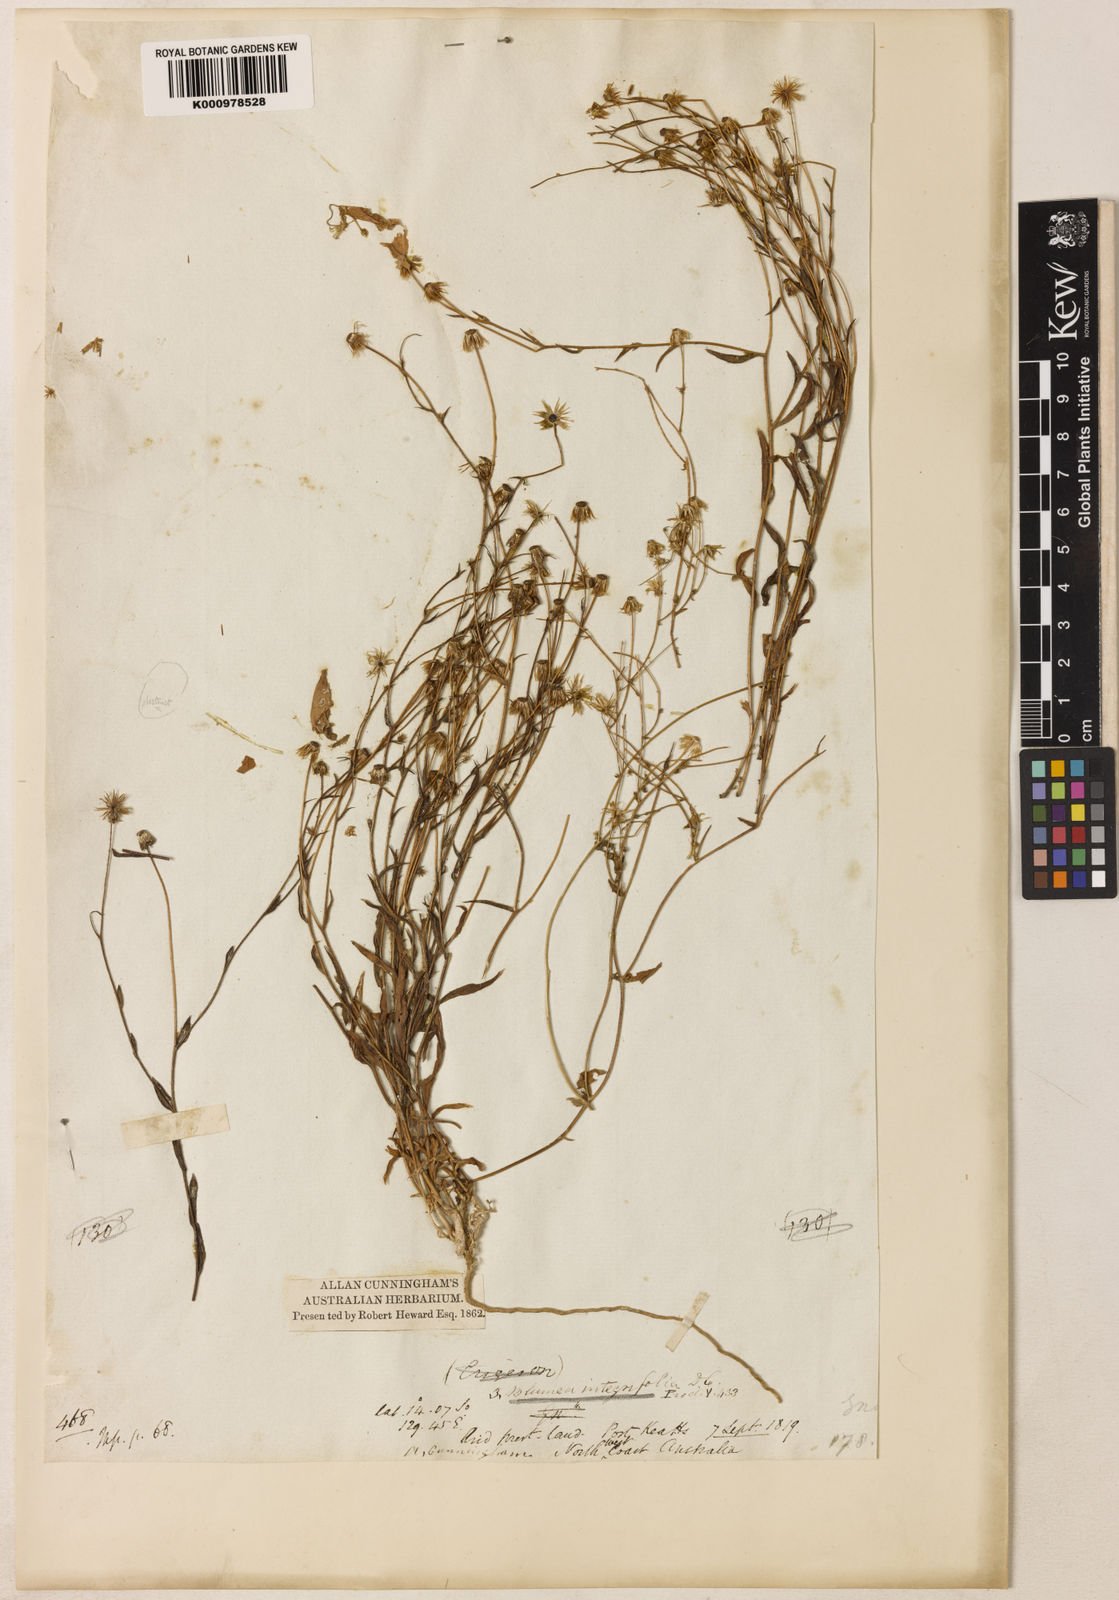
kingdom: Plantae
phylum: Tracheophyta
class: Magnoliopsida
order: Asterales
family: Asteraceae
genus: Blumea
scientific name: Blumea integrifolia
